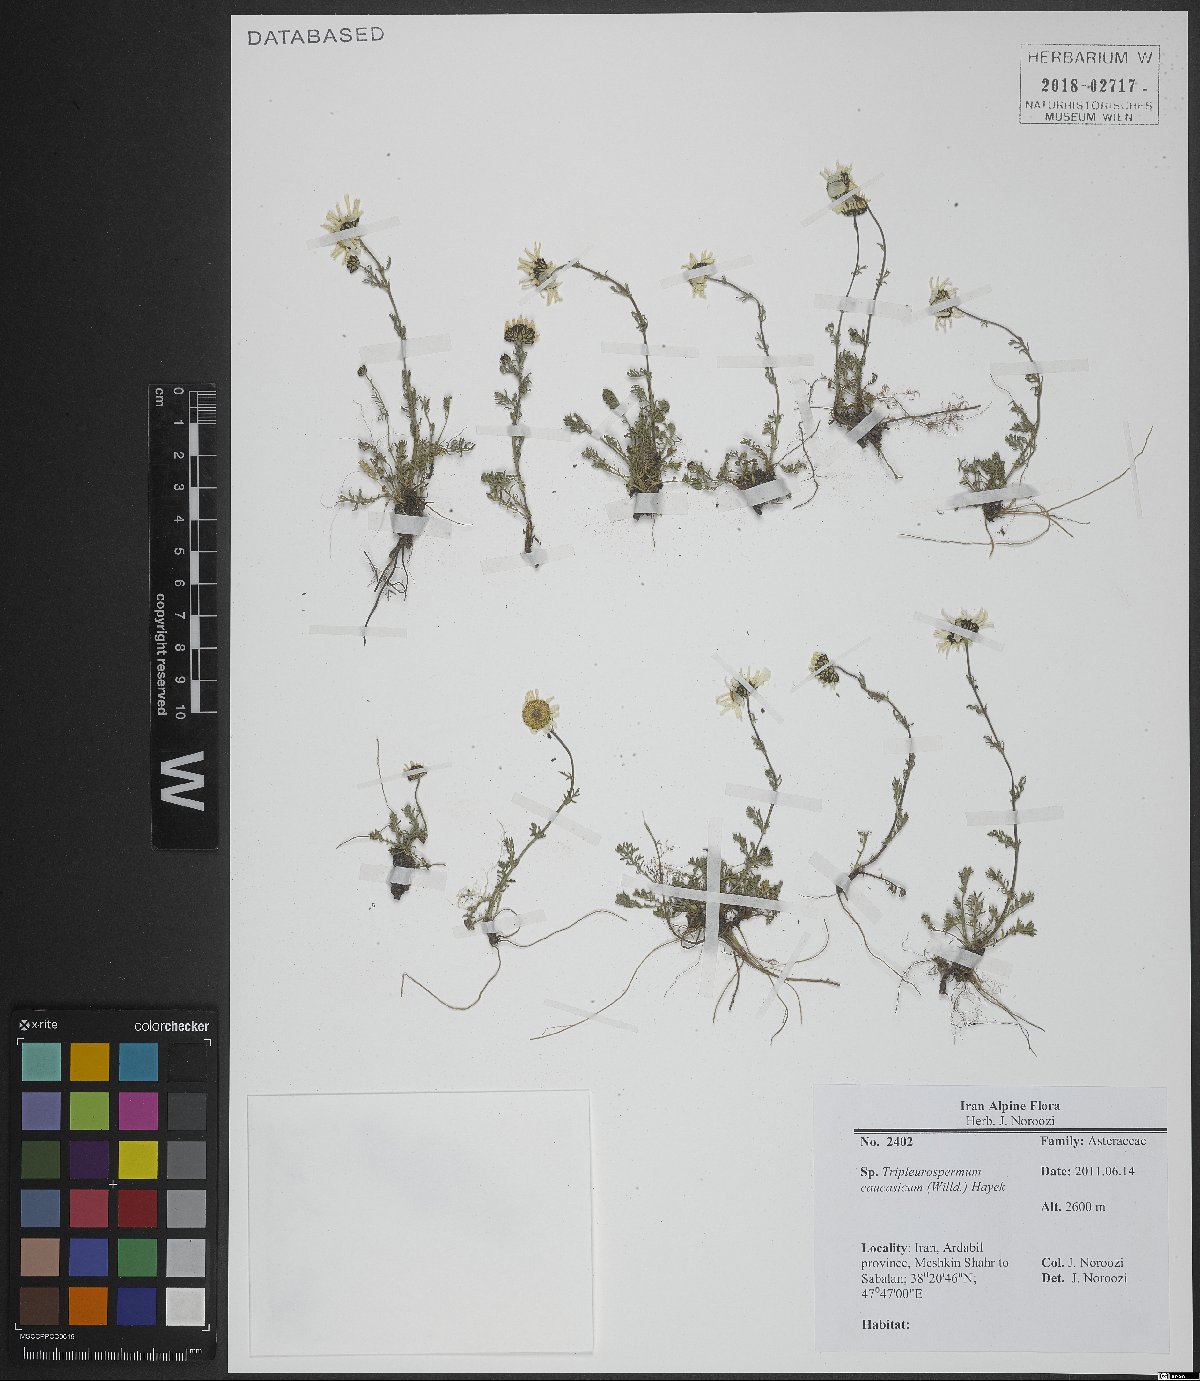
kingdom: Plantae
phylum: Tracheophyta
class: Magnoliopsida
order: Asterales
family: Asteraceae
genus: Tripleurospermum
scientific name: Tripleurospermum caucasicum
